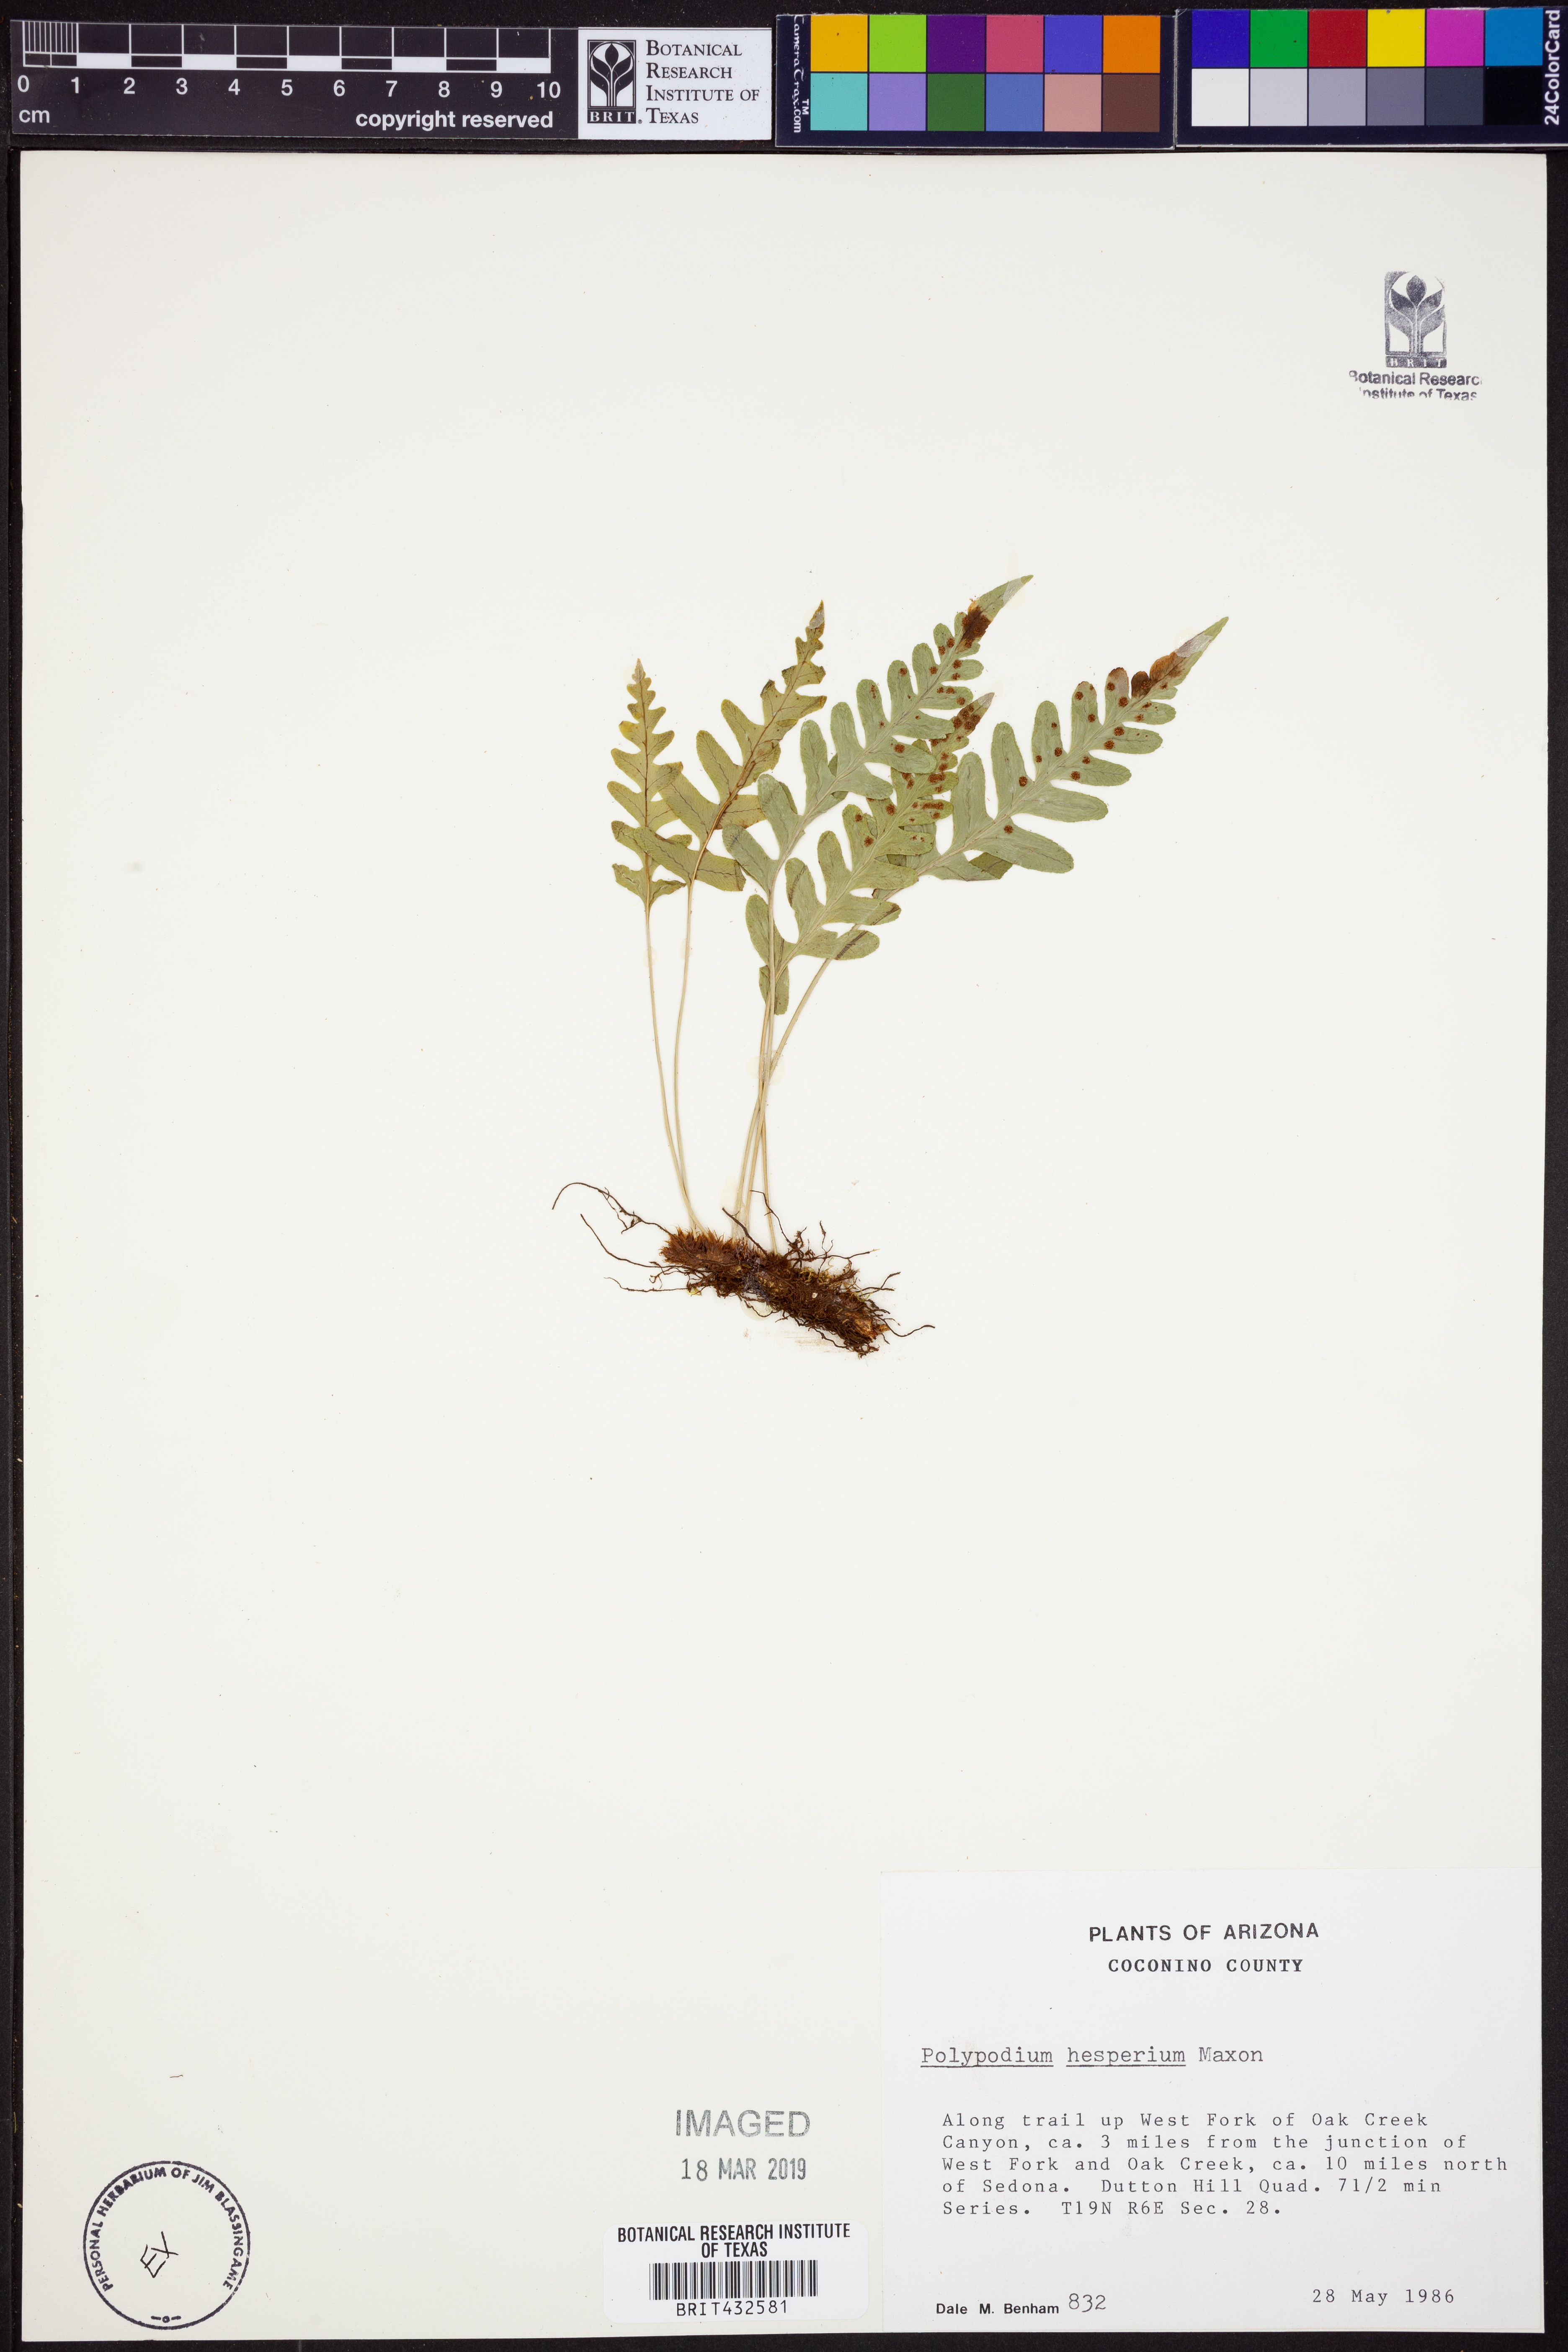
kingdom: Plantae
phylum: Tracheophyta
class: Polypodiopsida
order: Polypodiales
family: Polypodiaceae
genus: Polypodium
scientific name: Polypodium hesperium
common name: Western polypody
